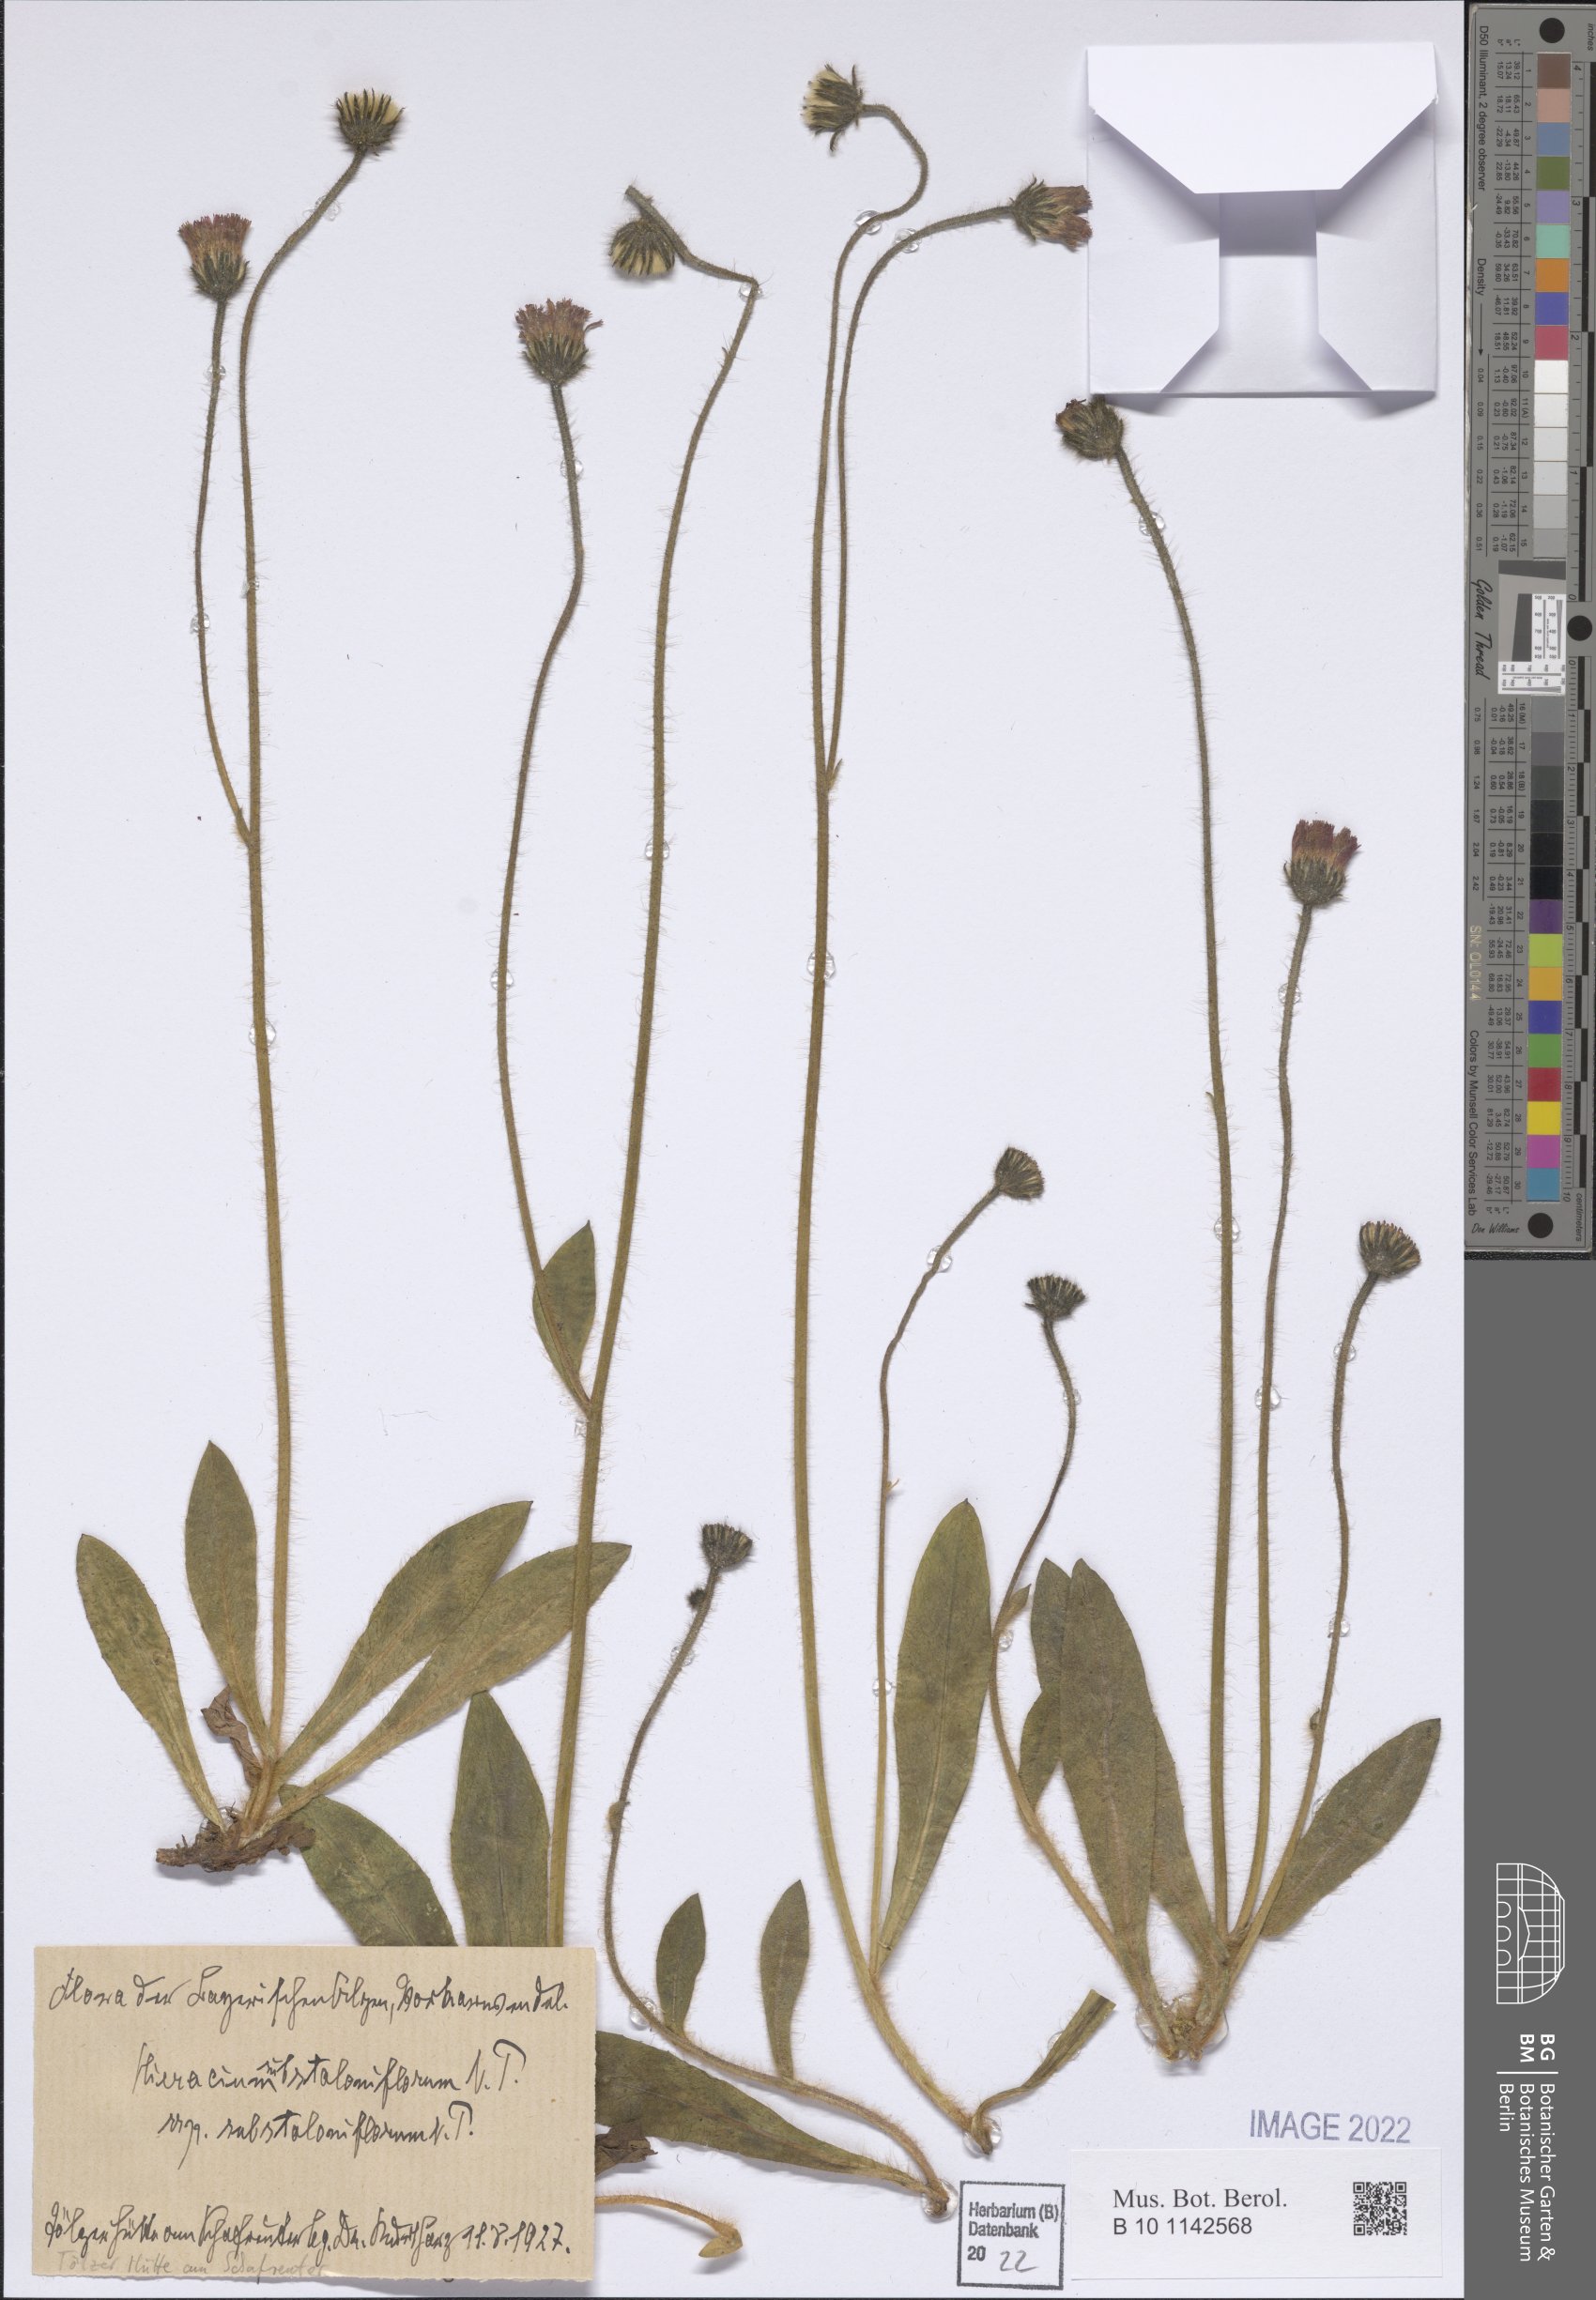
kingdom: Plantae
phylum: Tracheophyta
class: Magnoliopsida
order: Asterales
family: Asteraceae
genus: Pilosella
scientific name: Pilosella rubra
